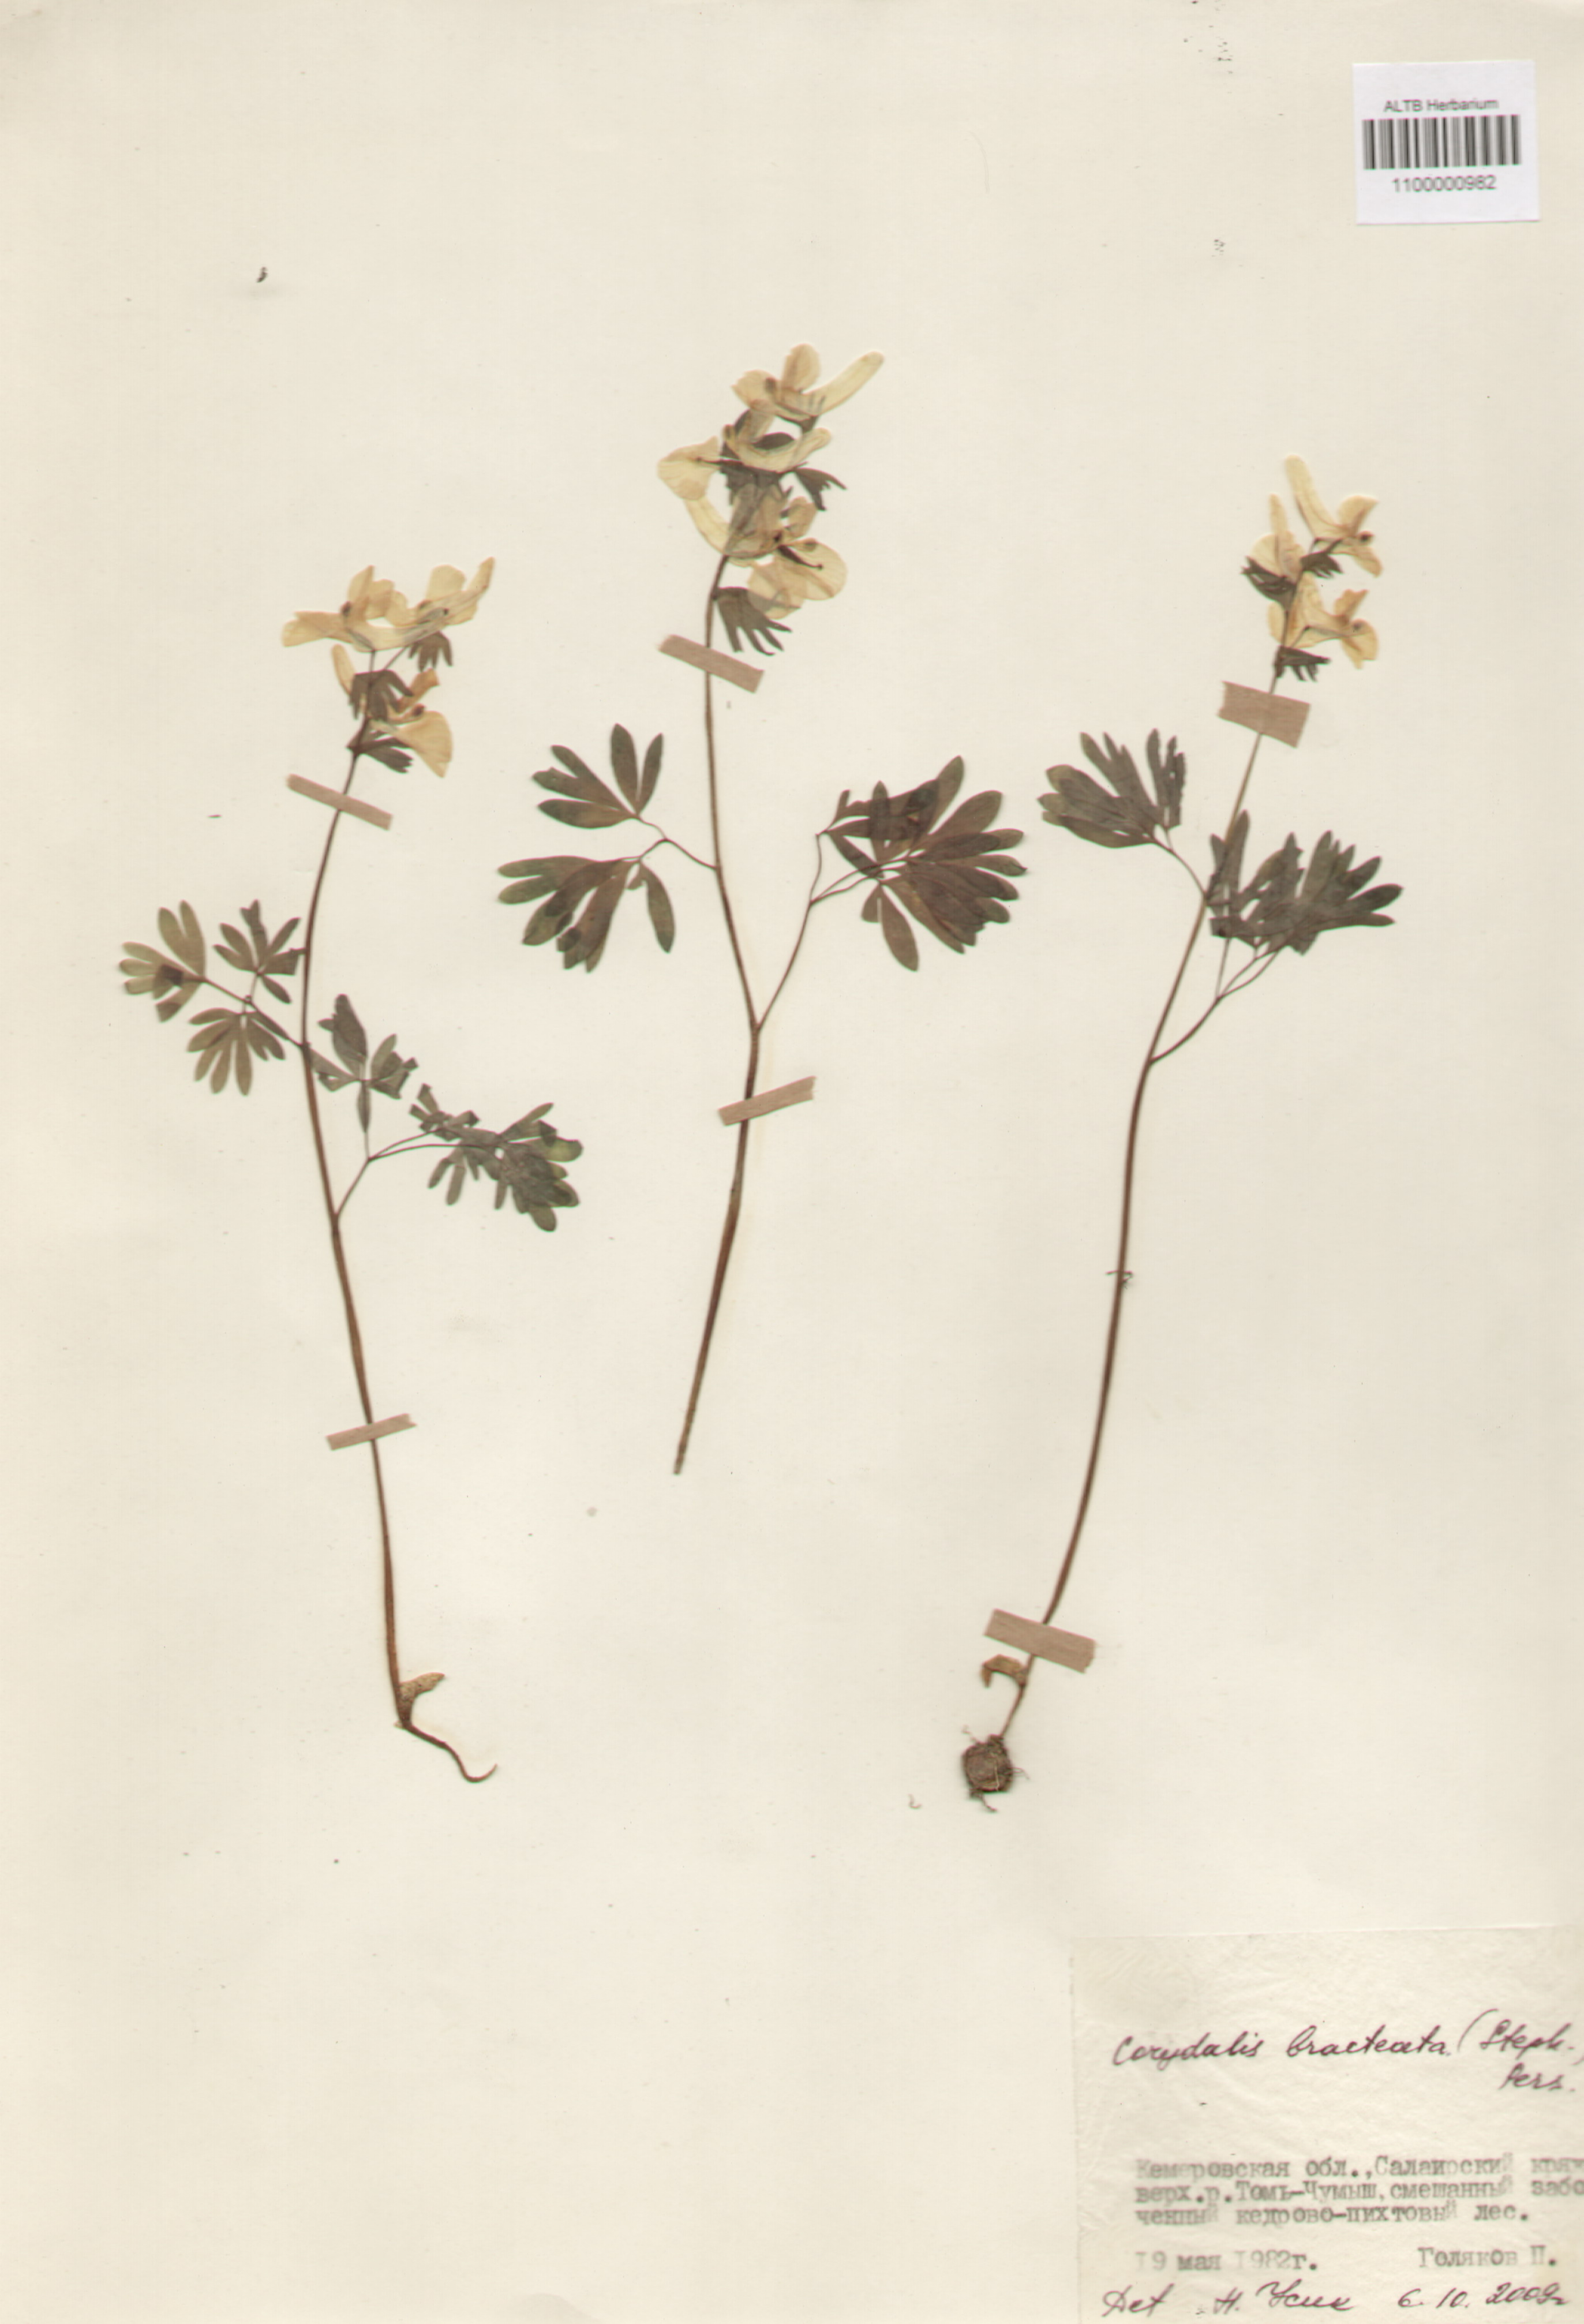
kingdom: Plantae
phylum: Tracheophyta
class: Magnoliopsida
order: Ranunculales
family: Papaveraceae
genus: Corydalis
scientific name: Corydalis bracteata
